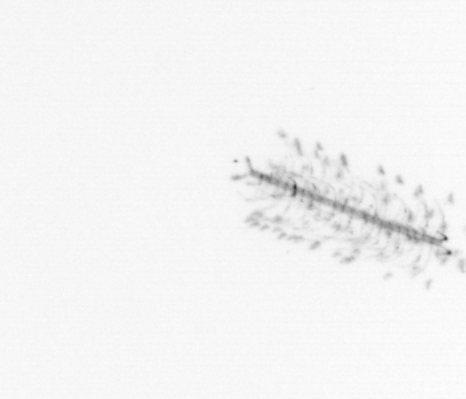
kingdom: Chromista
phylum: Ochrophyta
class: Bacillariophyceae
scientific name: Bacillariophyceae
